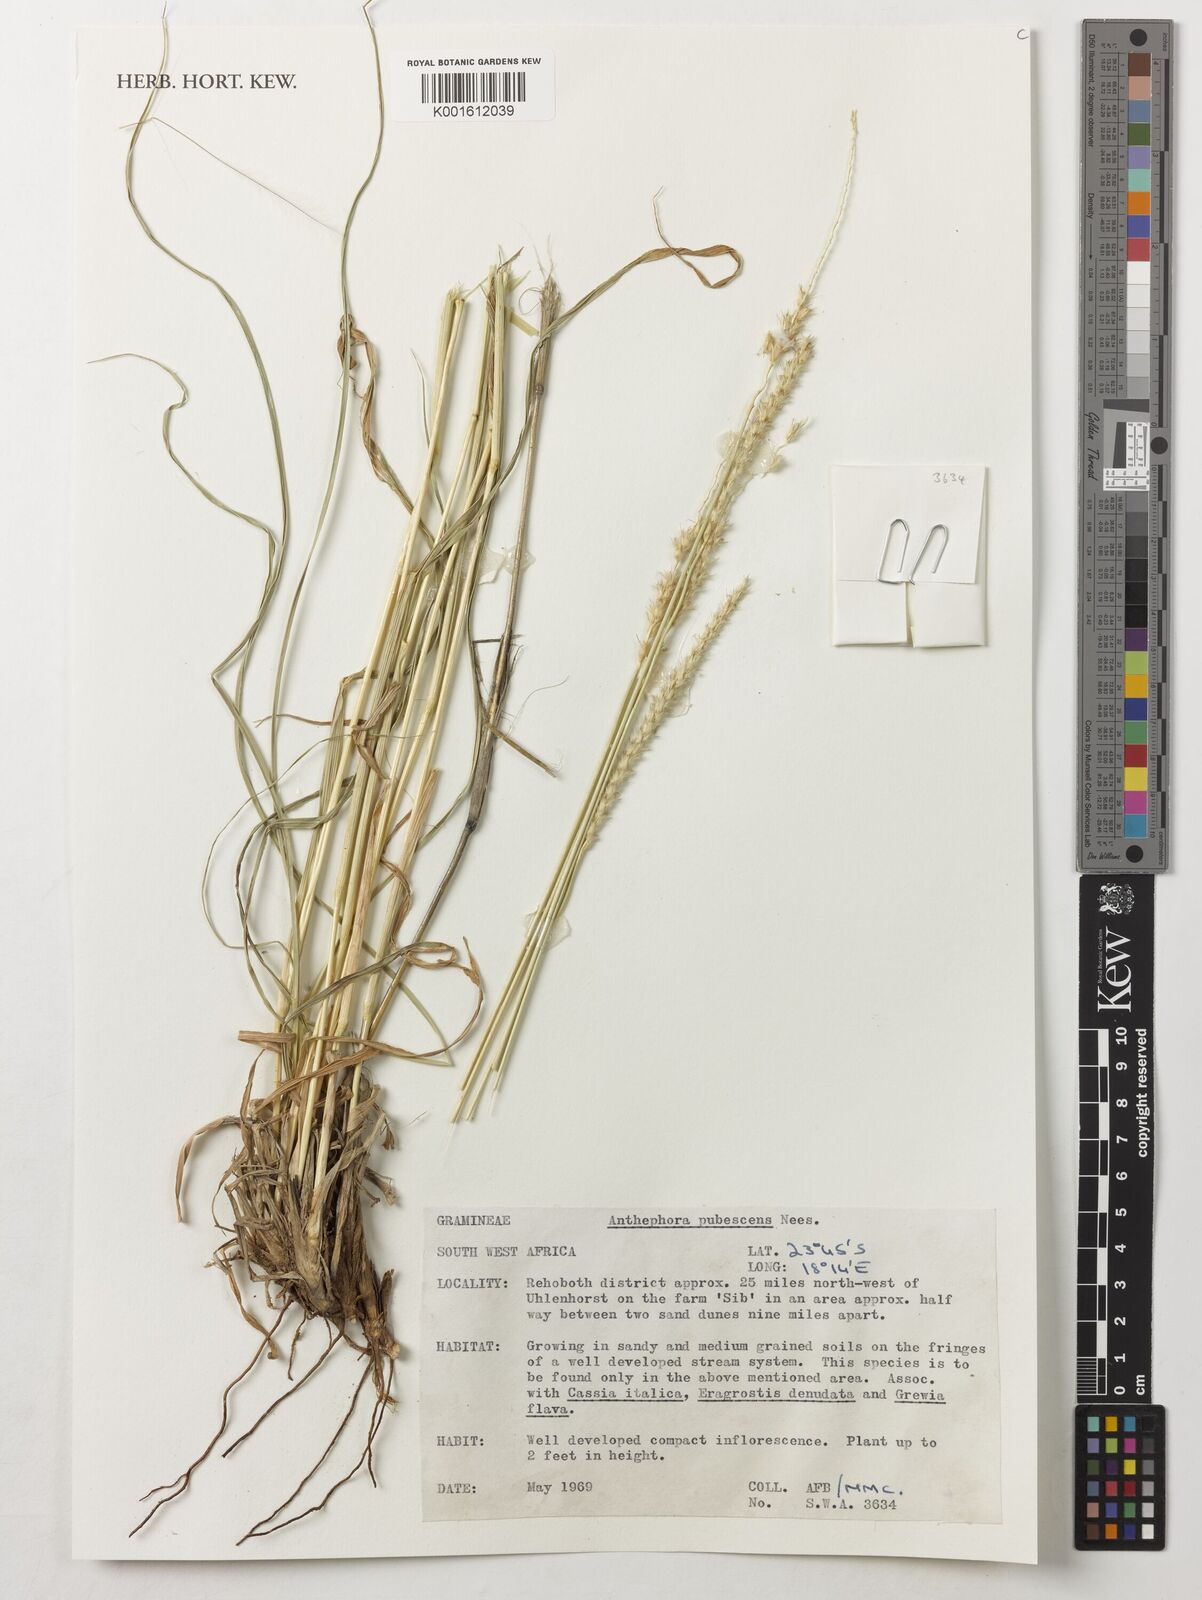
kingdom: Plantae
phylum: Tracheophyta
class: Liliopsida
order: Poales
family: Poaceae
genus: Anthephora
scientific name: Anthephora pubescens
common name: Wool grass
